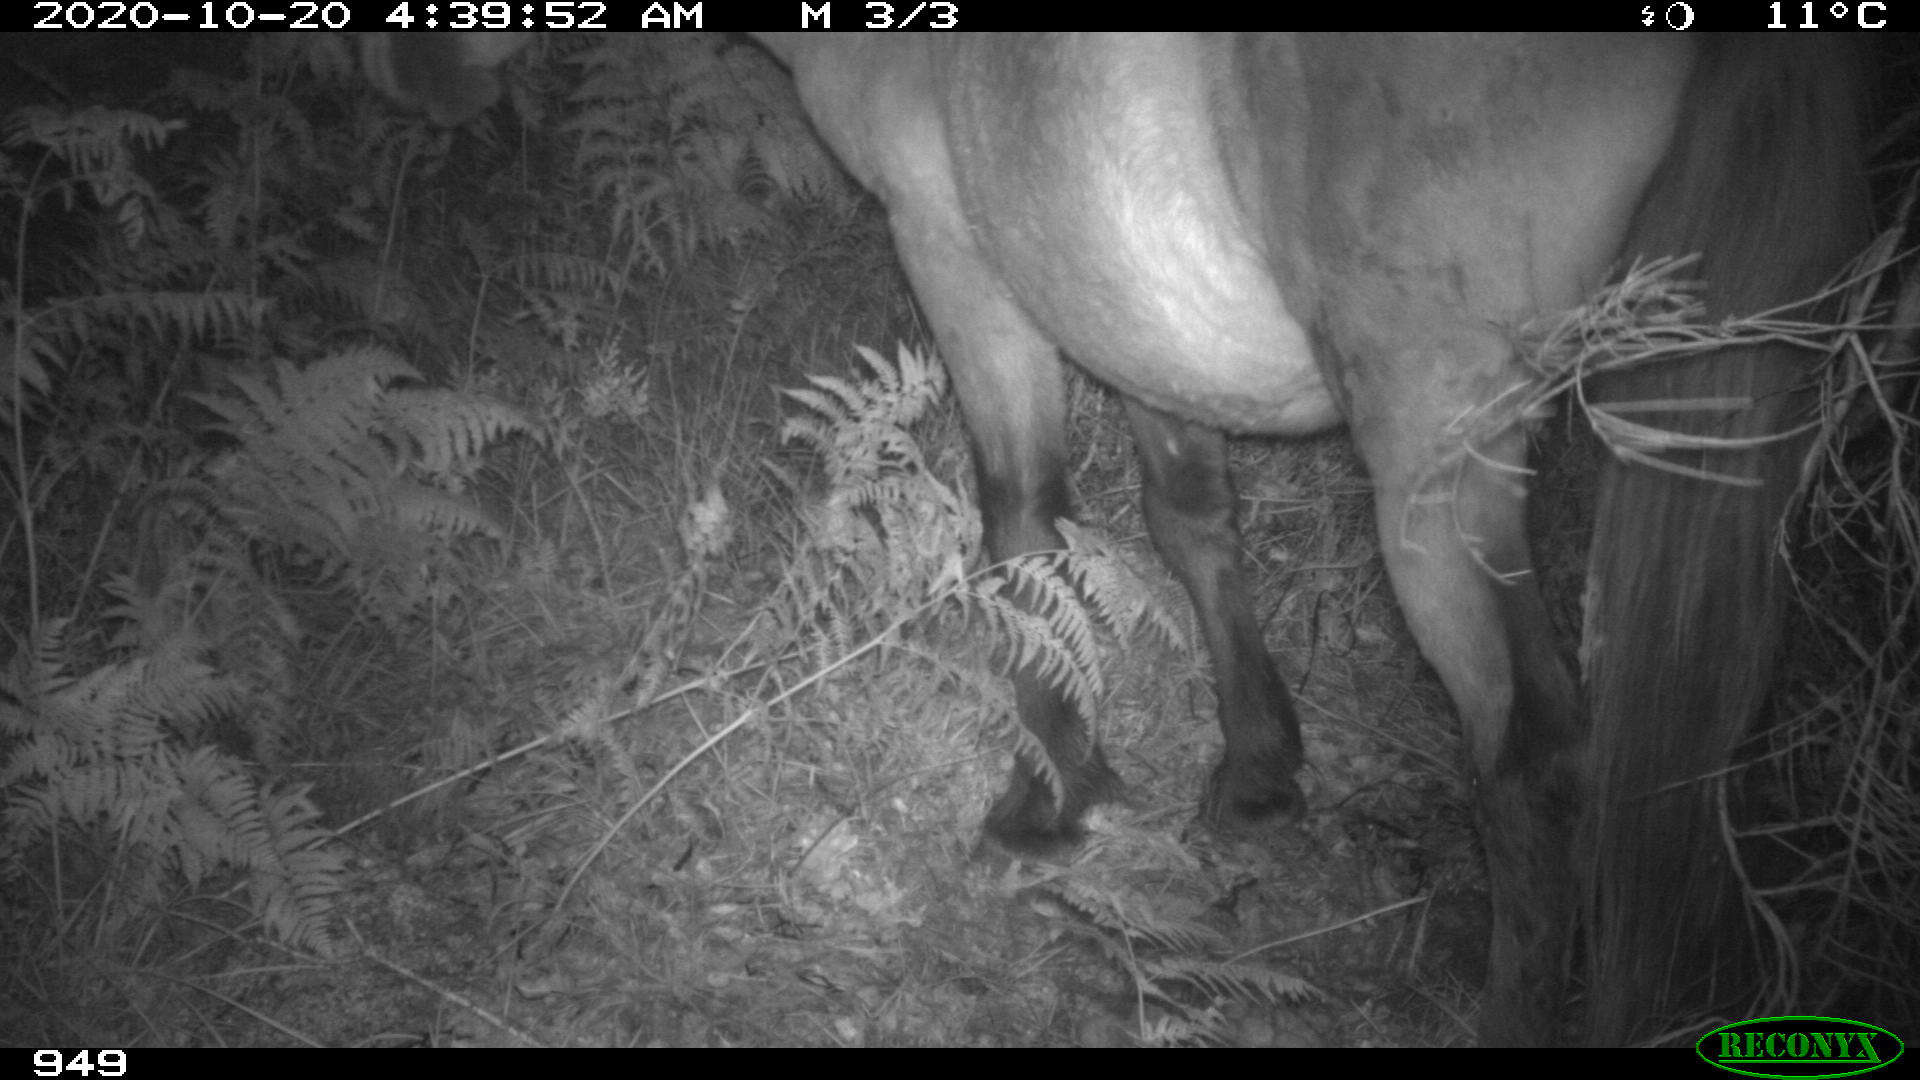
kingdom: Animalia
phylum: Chordata
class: Mammalia
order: Perissodactyla
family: Equidae
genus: Equus
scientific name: Equus caballus
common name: Horse
